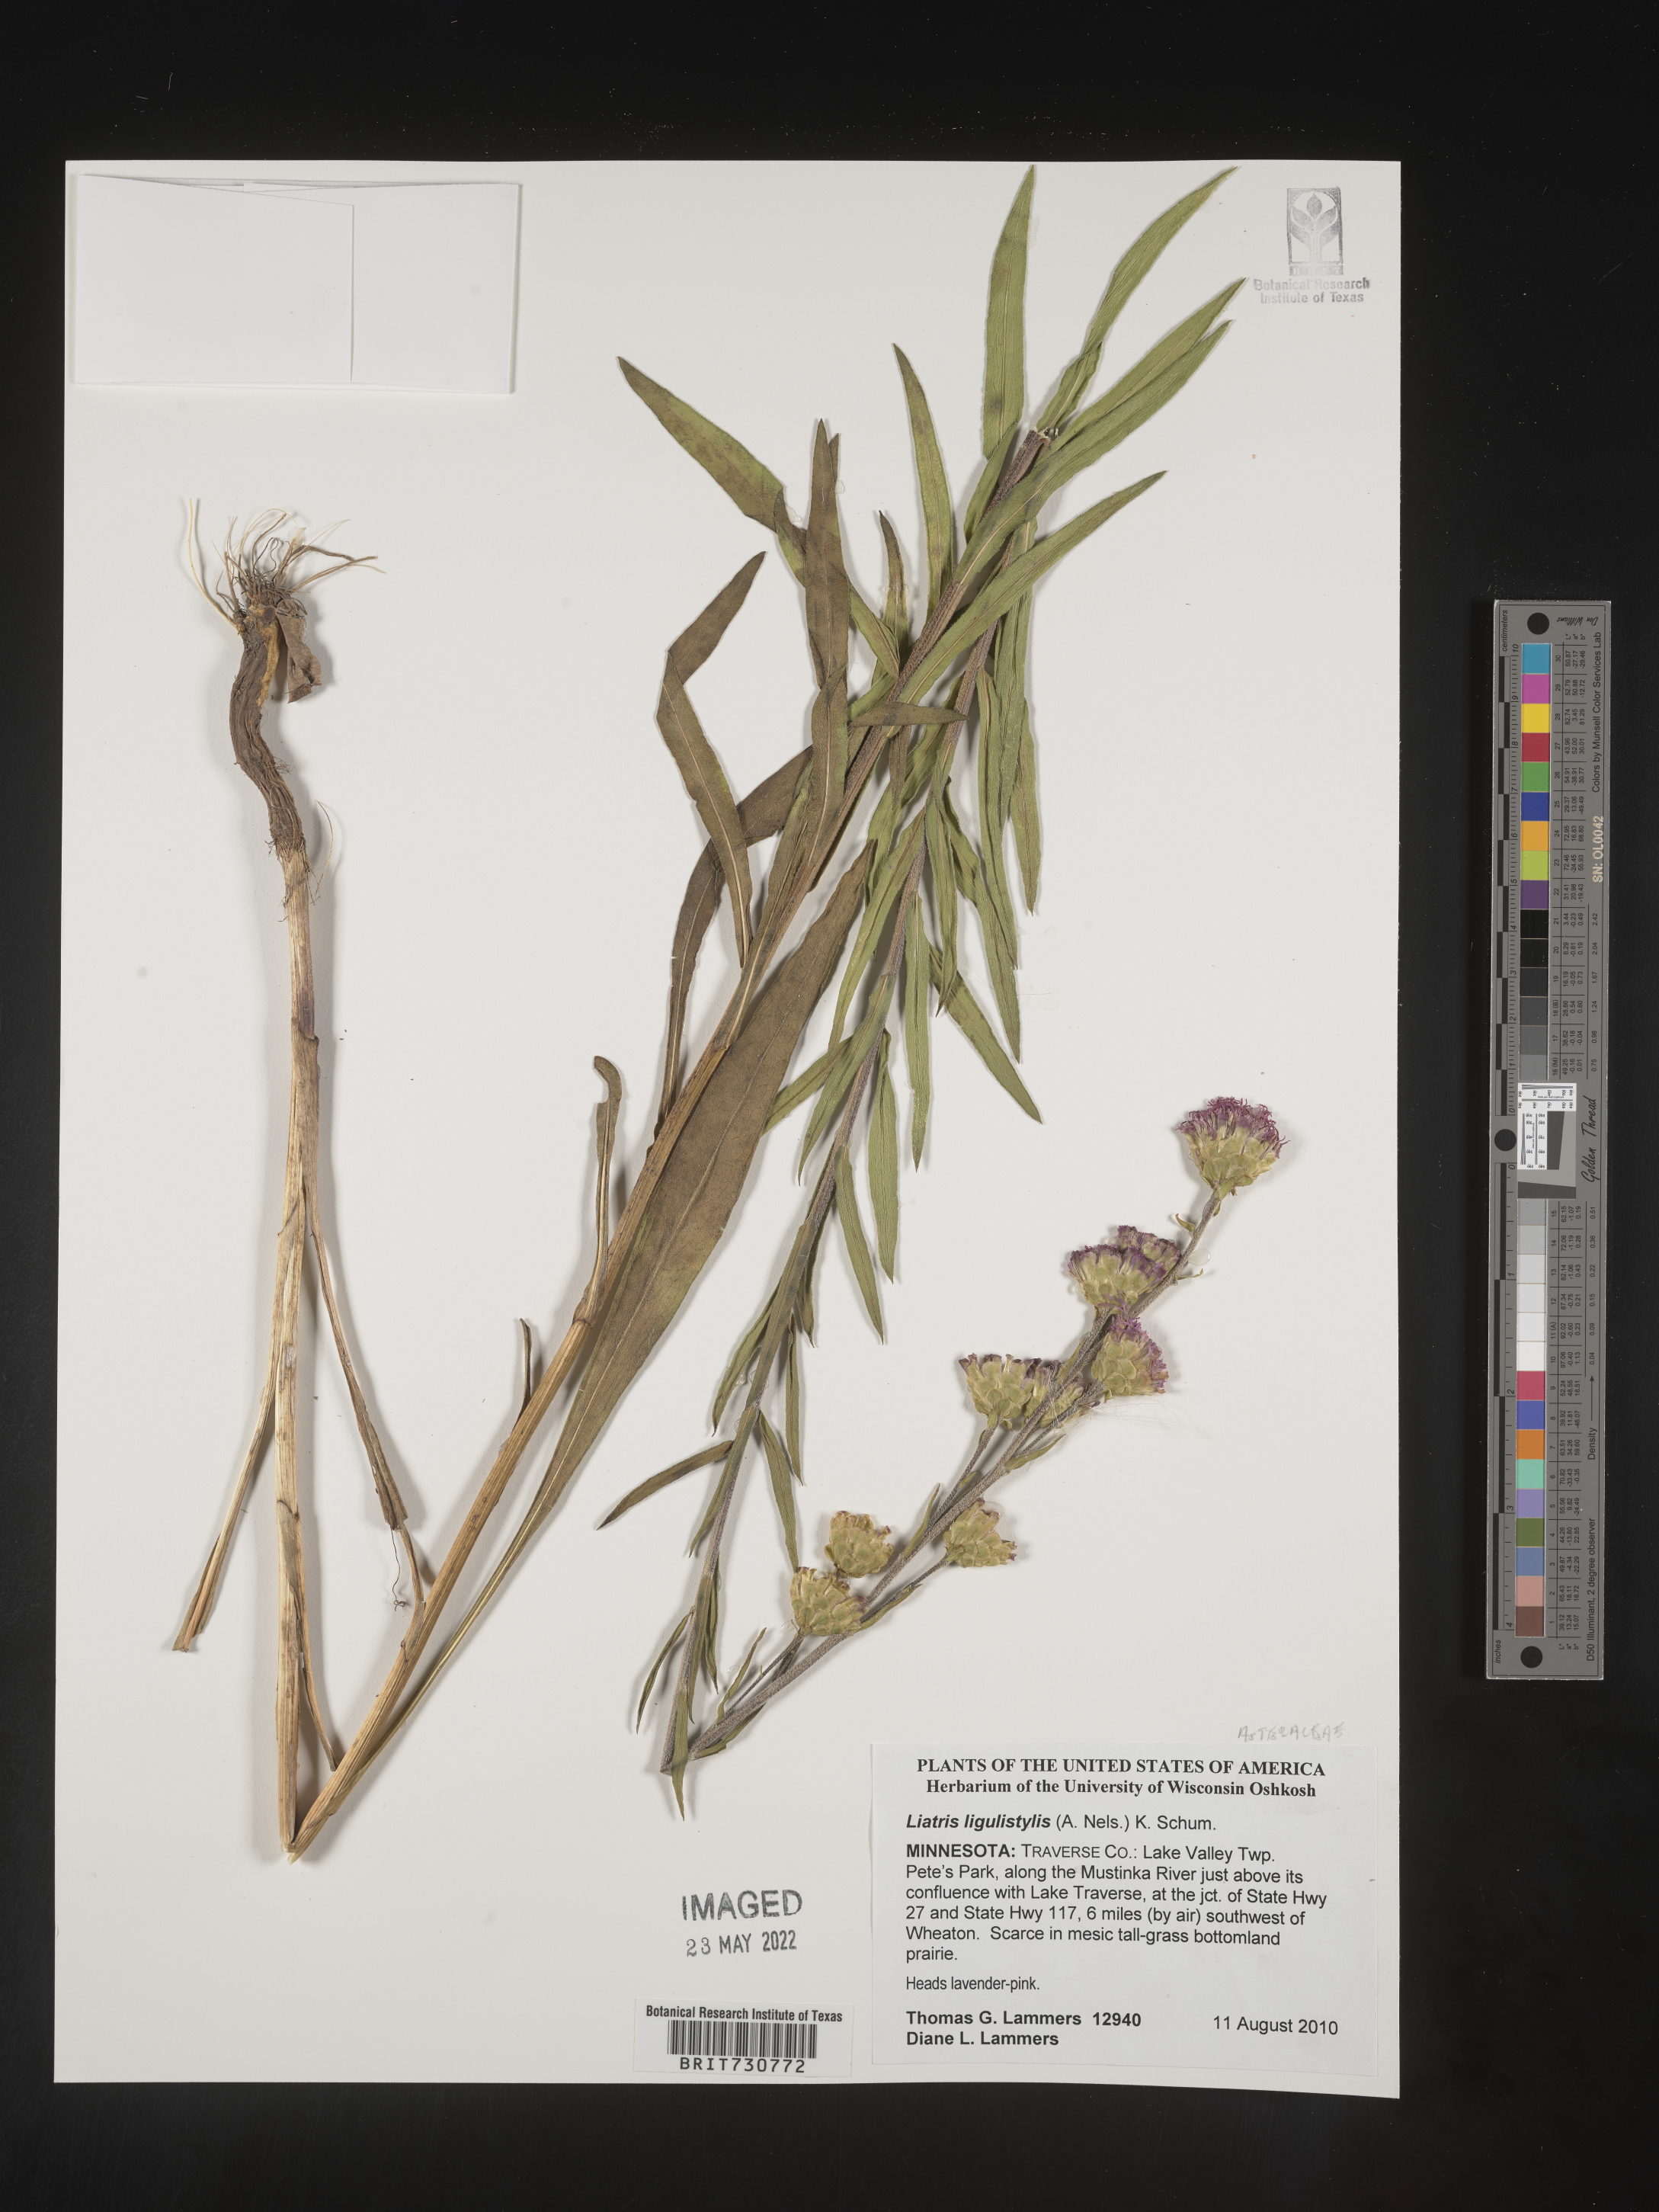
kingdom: Plantae
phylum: Tracheophyta
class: Magnoliopsida
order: Asterales
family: Asteraceae
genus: Liatris
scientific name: Liatris ligulistylis
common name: Northern plains gayfeather
